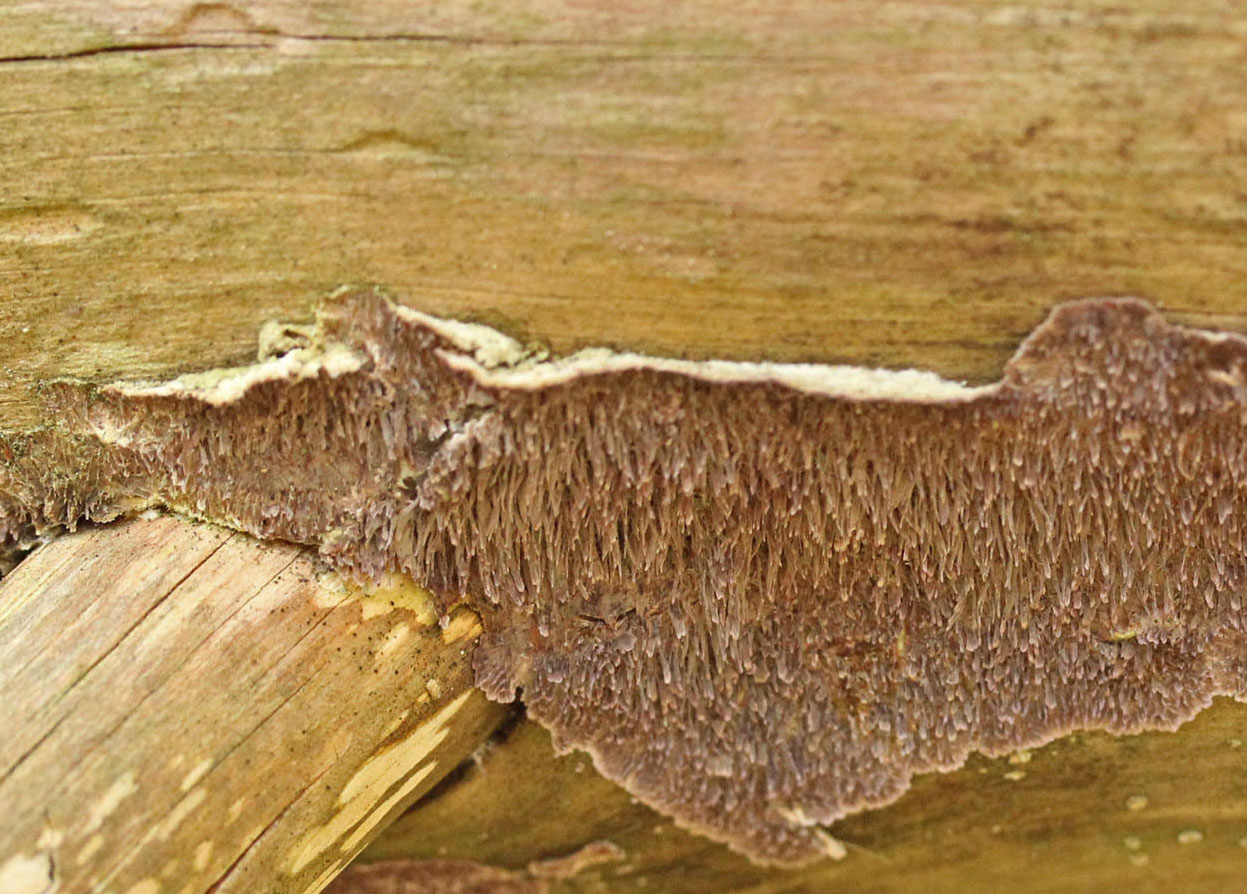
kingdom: Fungi
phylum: Basidiomycota
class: Agaricomycetes
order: Hymenochaetales
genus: Trichaptum
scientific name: Trichaptum fuscoviolaceum
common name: tandet violporesvamp
